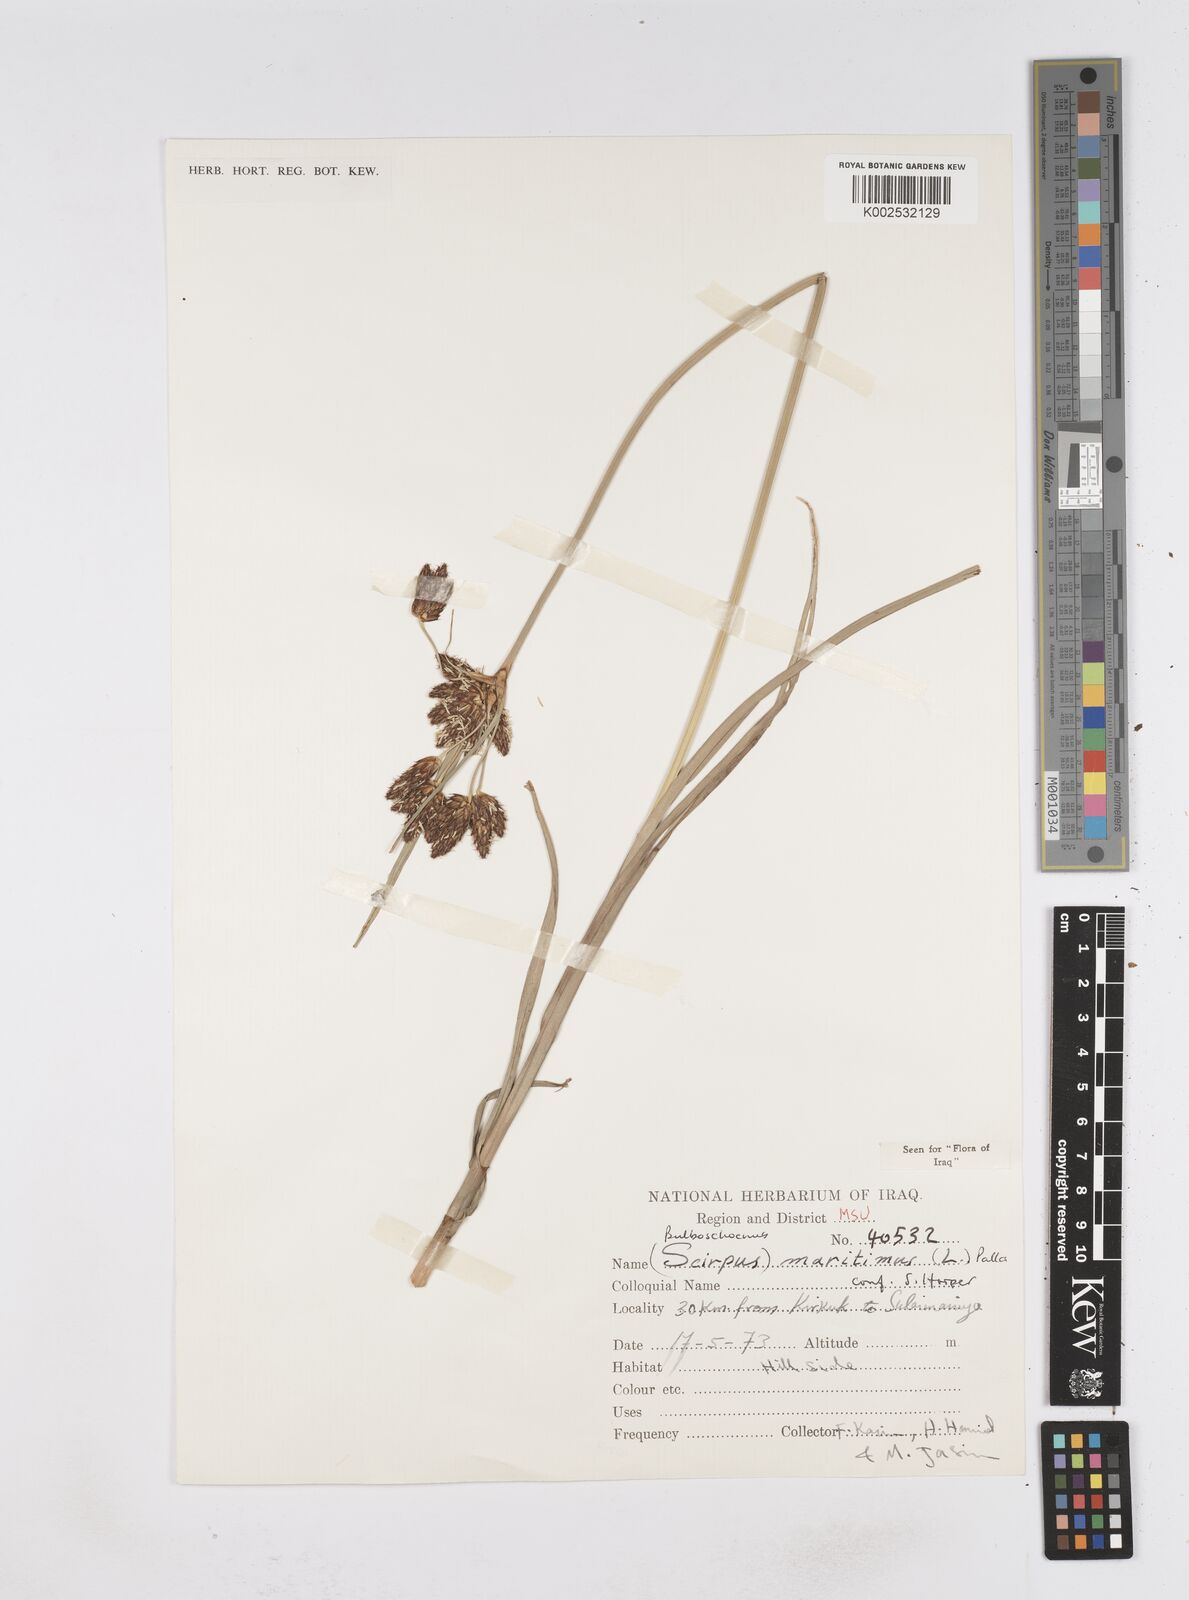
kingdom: Plantae
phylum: Tracheophyta
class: Liliopsida
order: Poales
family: Cyperaceae
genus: Bolboschoenus
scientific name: Bolboschoenus maritimus
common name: Sea club-rush
